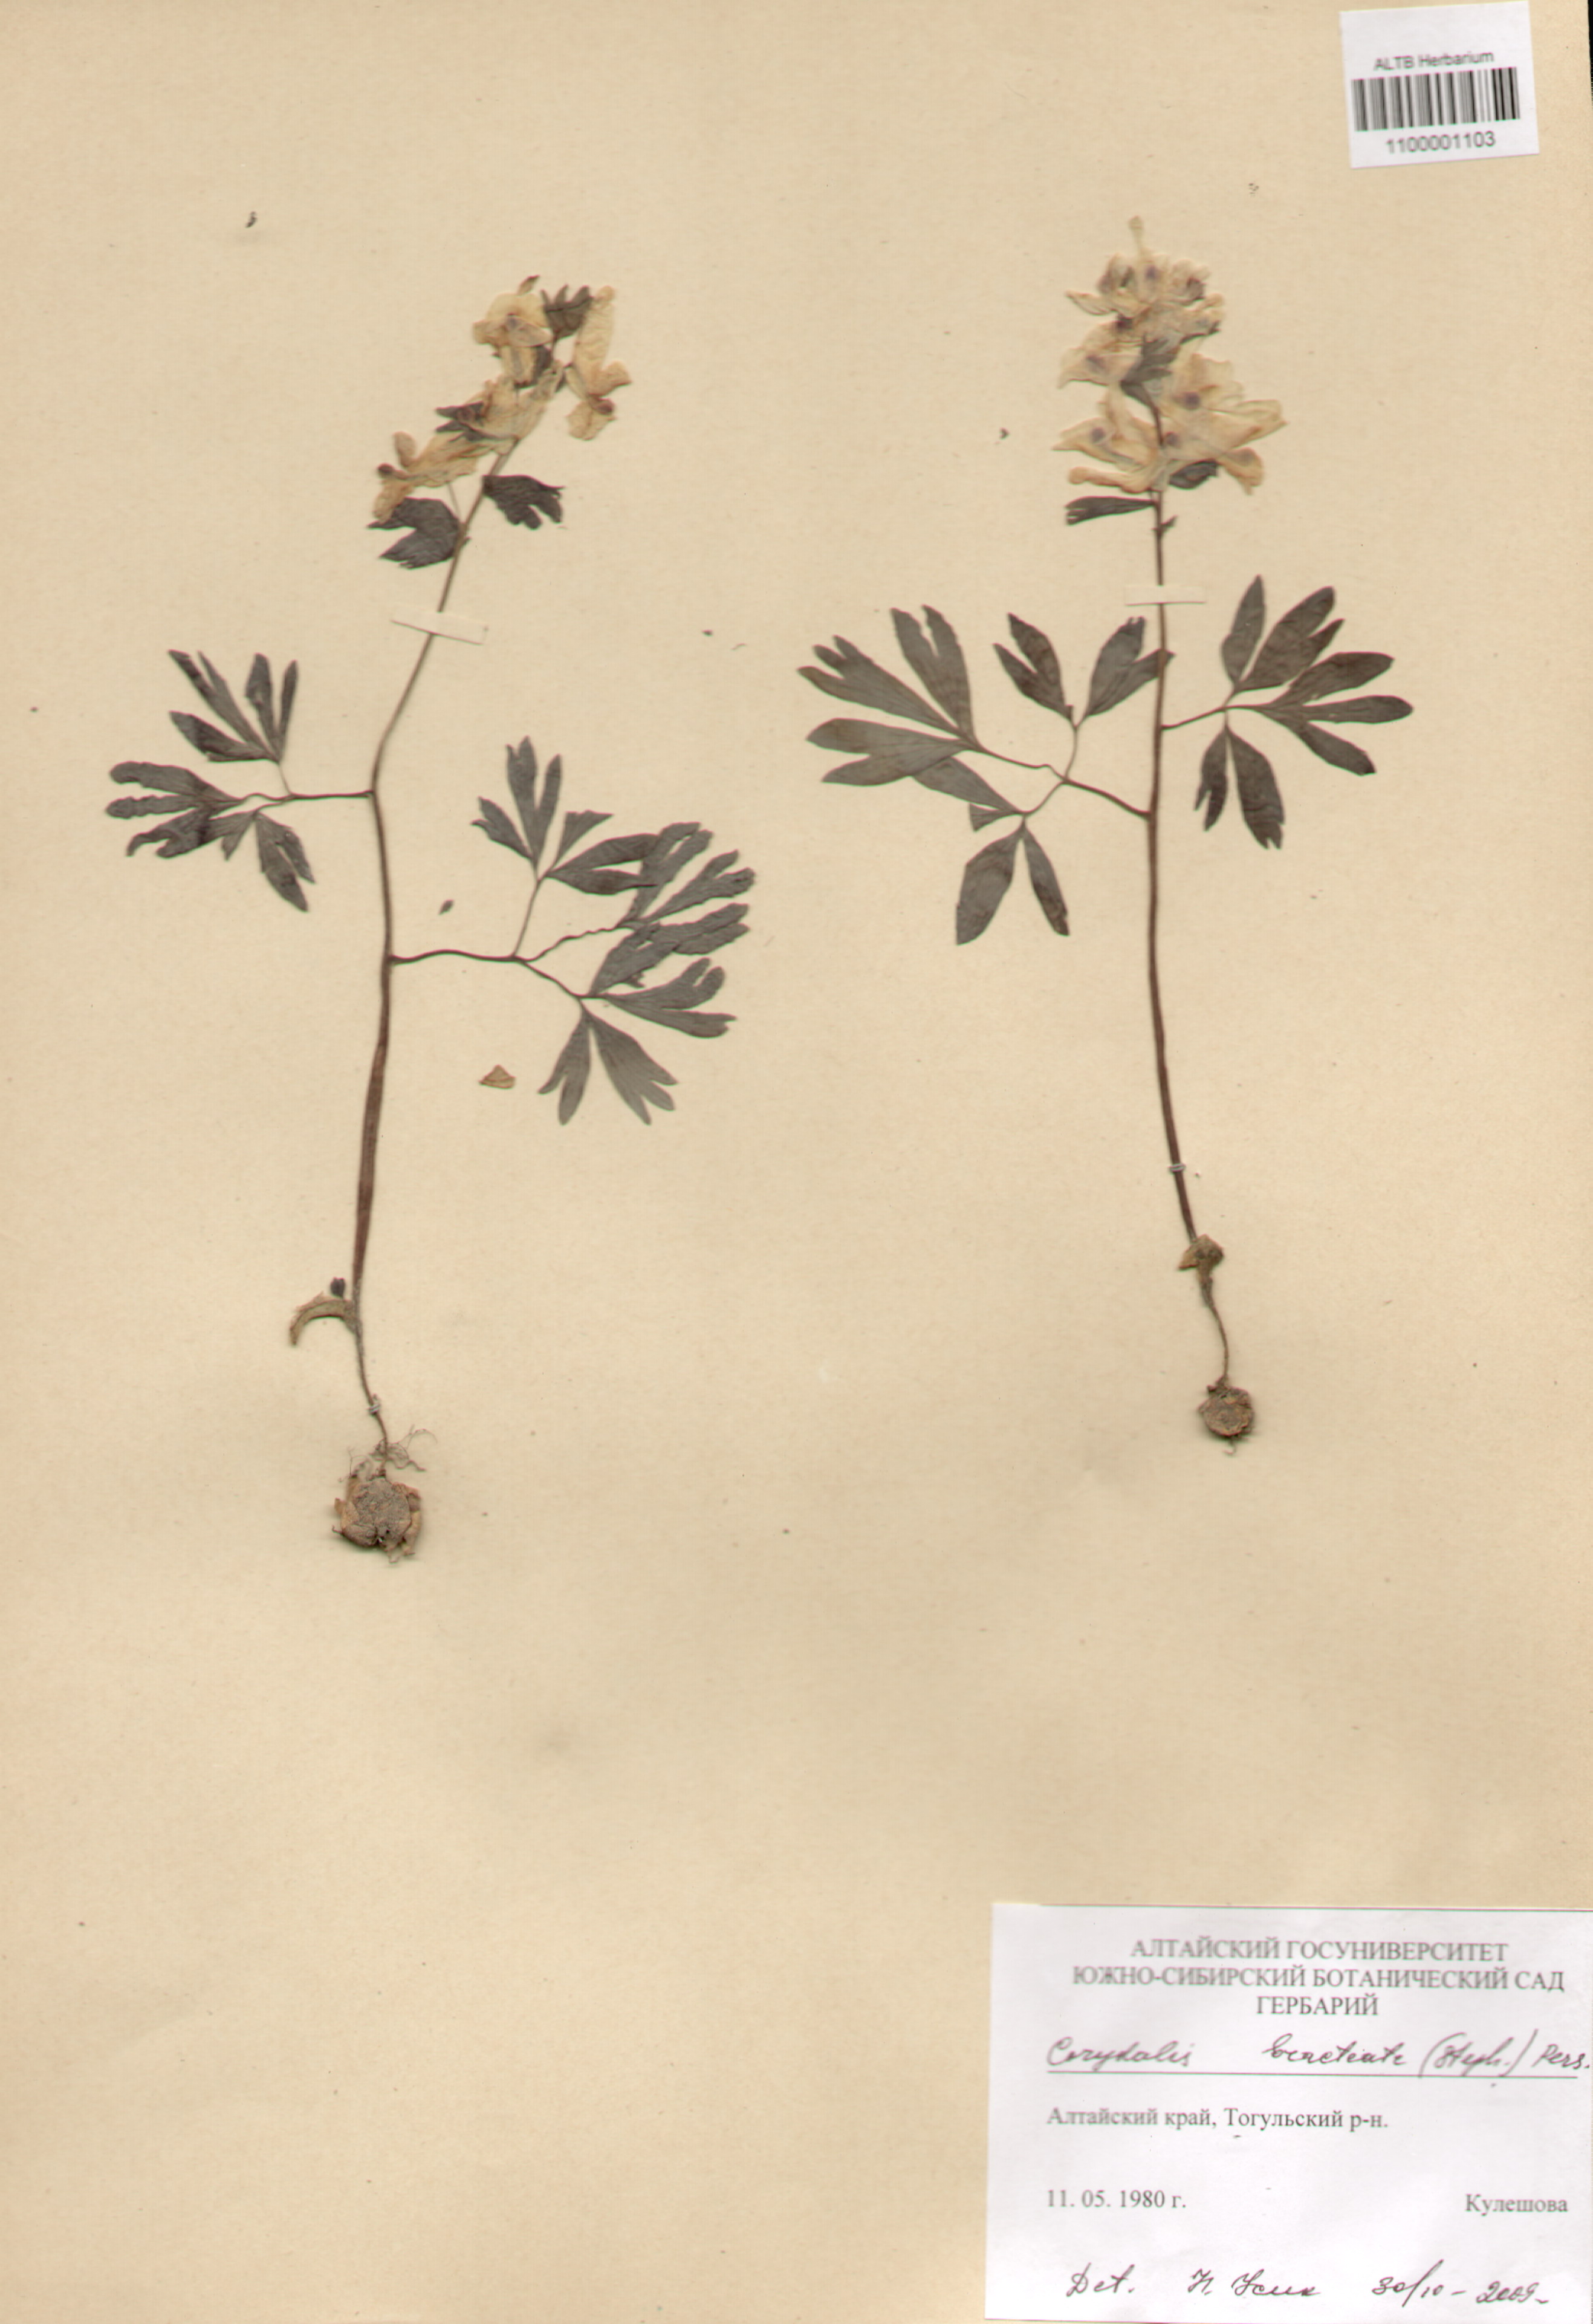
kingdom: Plantae
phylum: Tracheophyta
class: Magnoliopsida
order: Ranunculales
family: Papaveraceae
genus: Corydalis
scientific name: Corydalis bracteata
